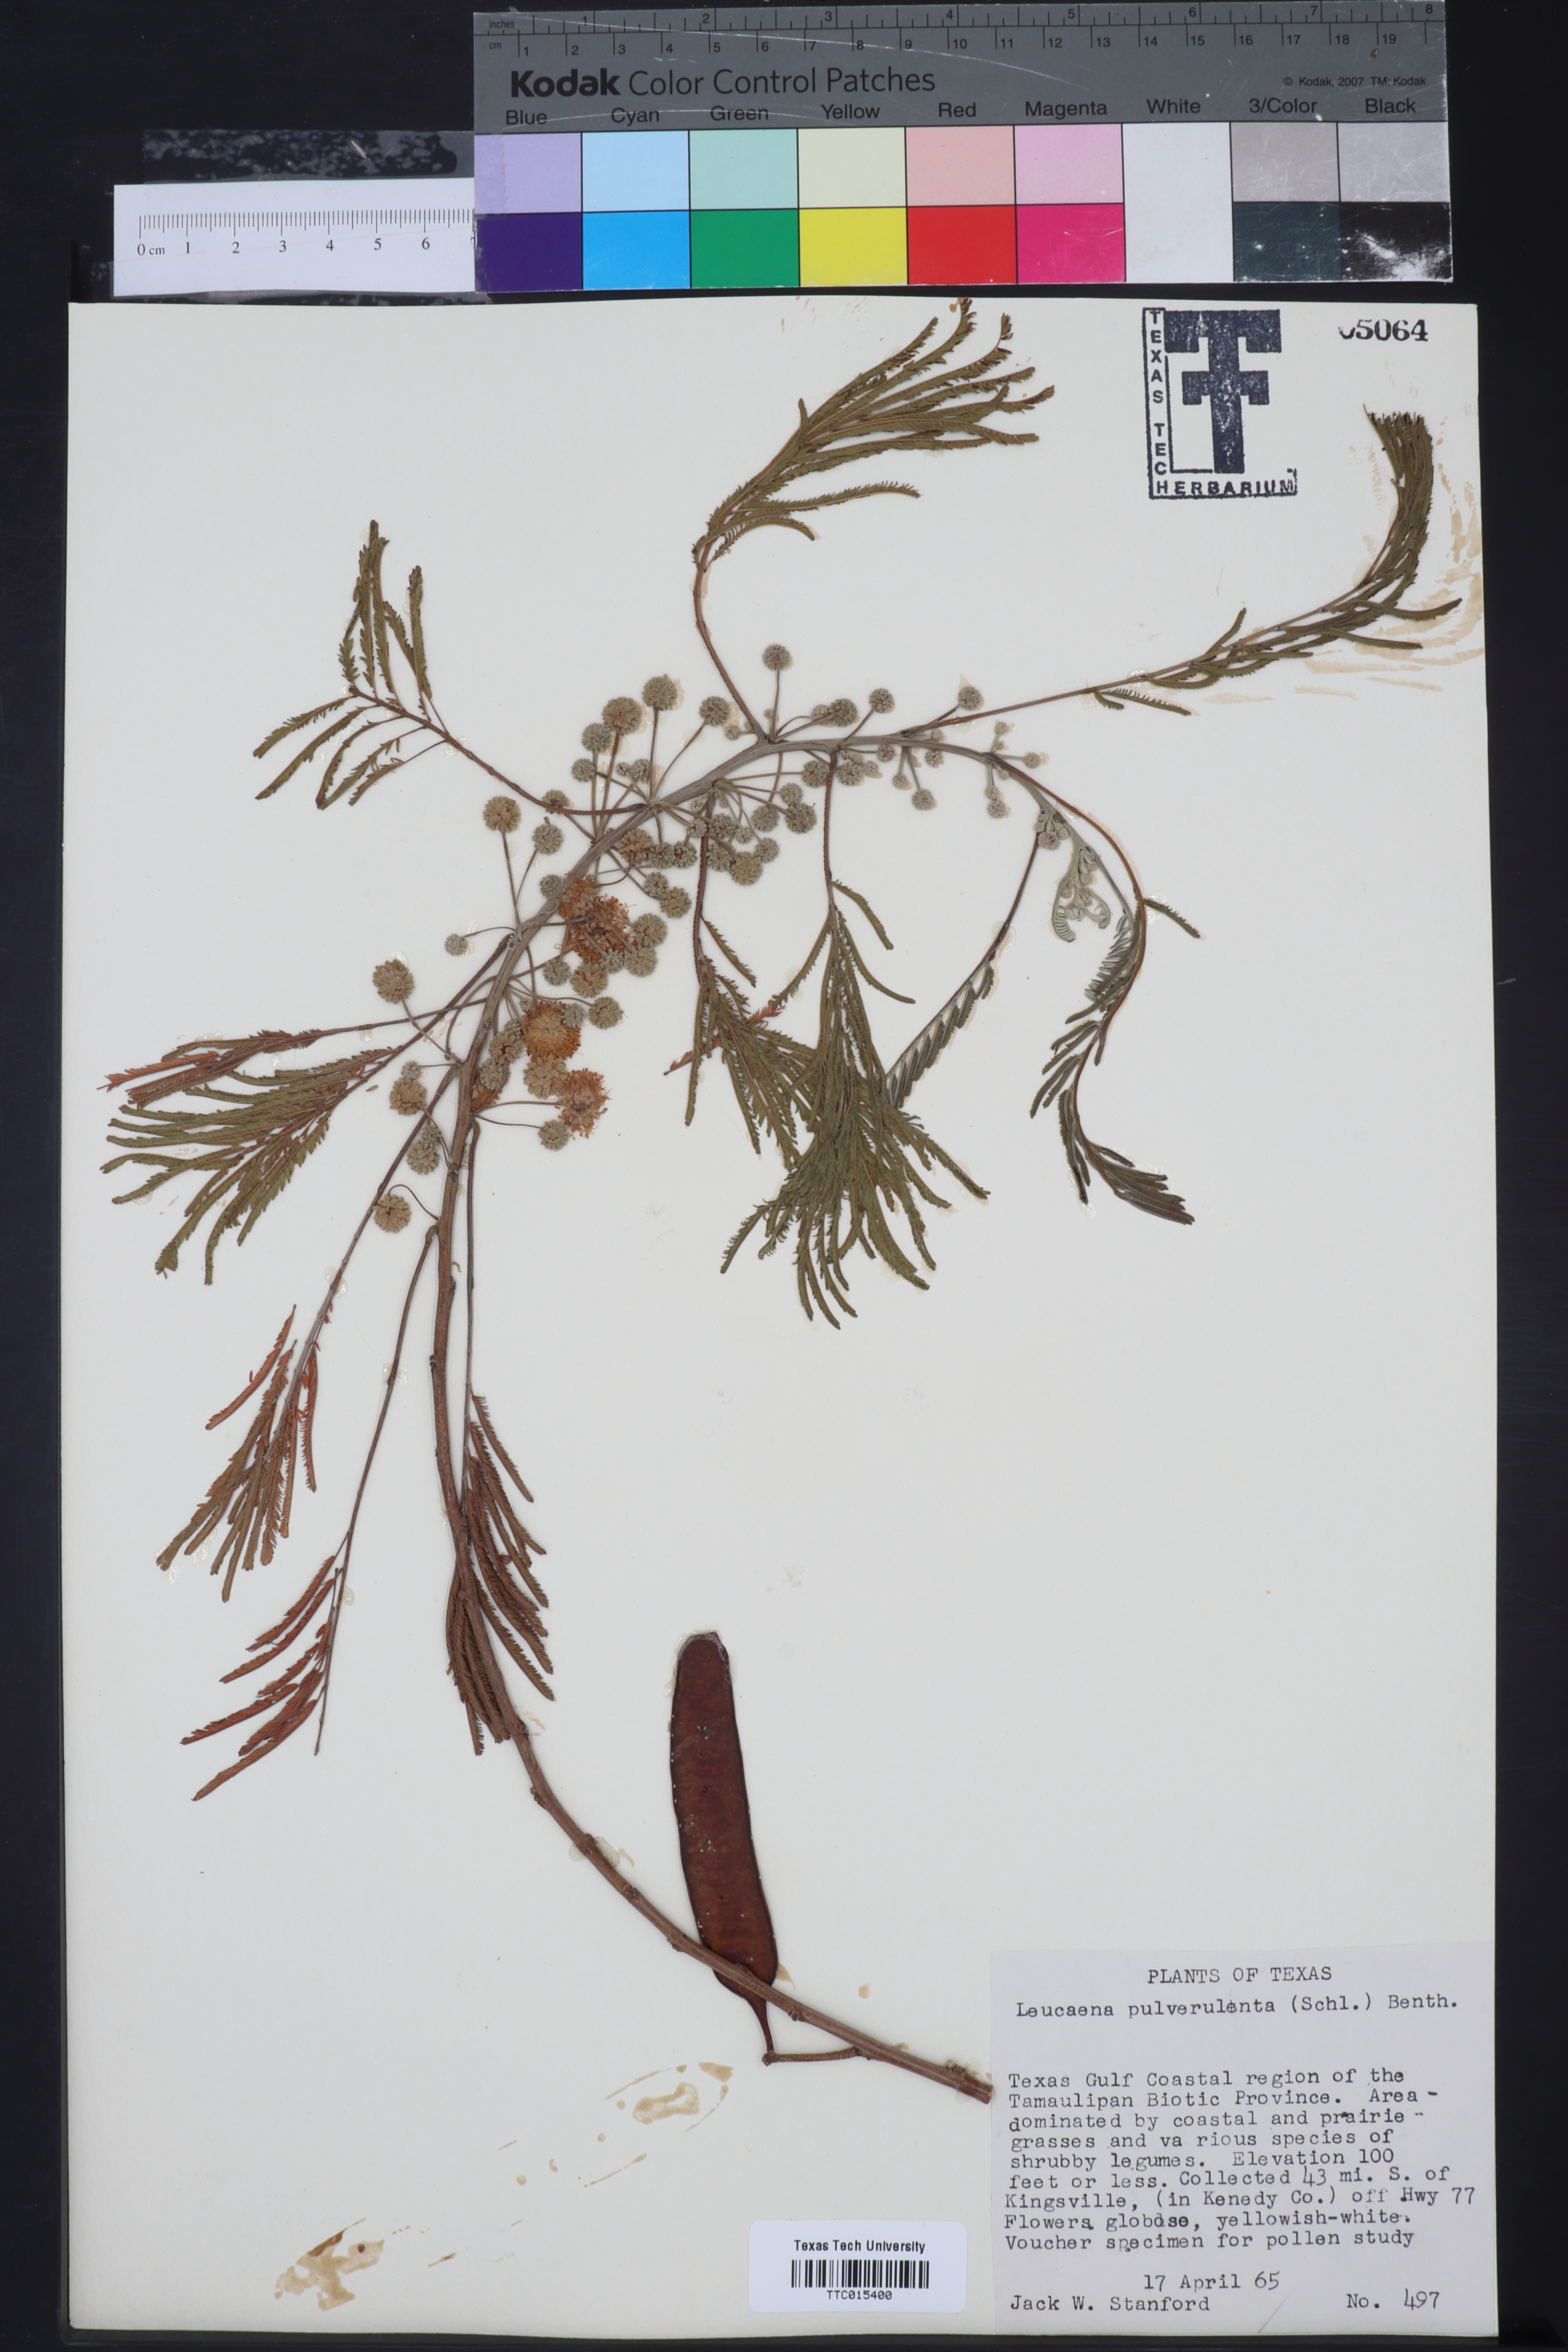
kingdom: Plantae
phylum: Tracheophyta
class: Magnoliopsida
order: Fabales
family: Fabaceae
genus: Leucaena
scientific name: Leucaena pulverulenta
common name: Great leadtree
